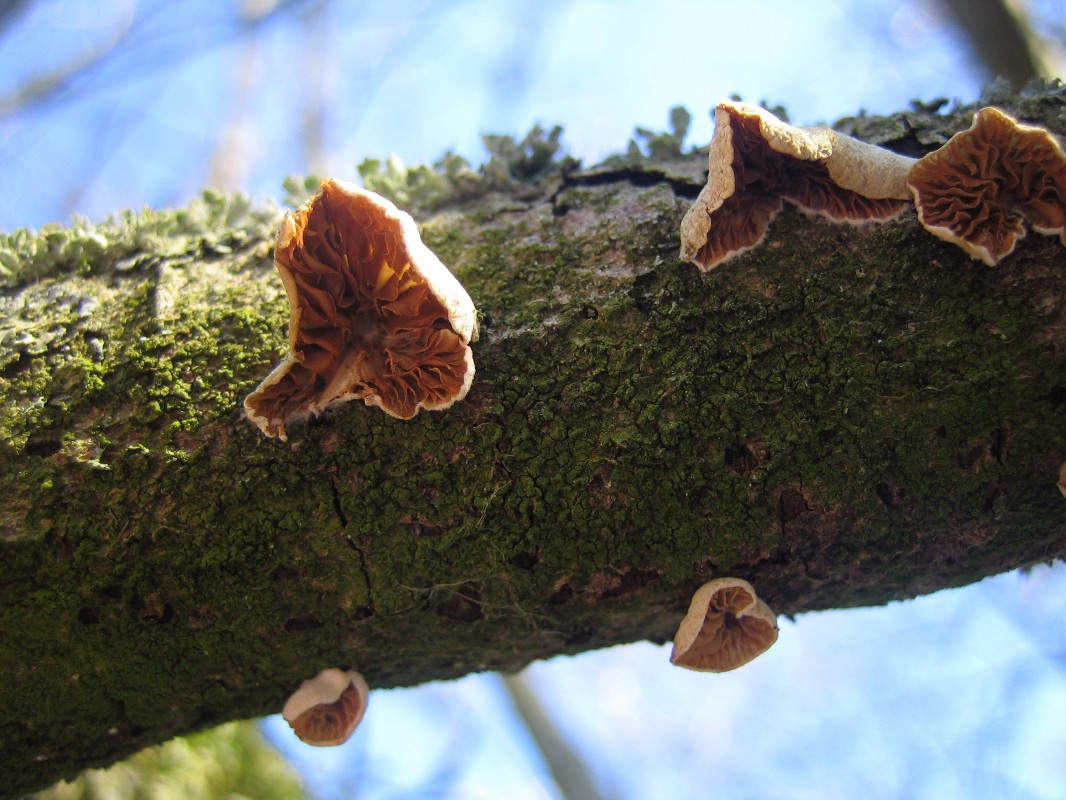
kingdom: Fungi
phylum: Basidiomycota
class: Agaricomycetes
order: Agaricales
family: Crepidotaceae
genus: Crepidotus
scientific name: Crepidotus cesatii
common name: almindelig muslingesvamp
